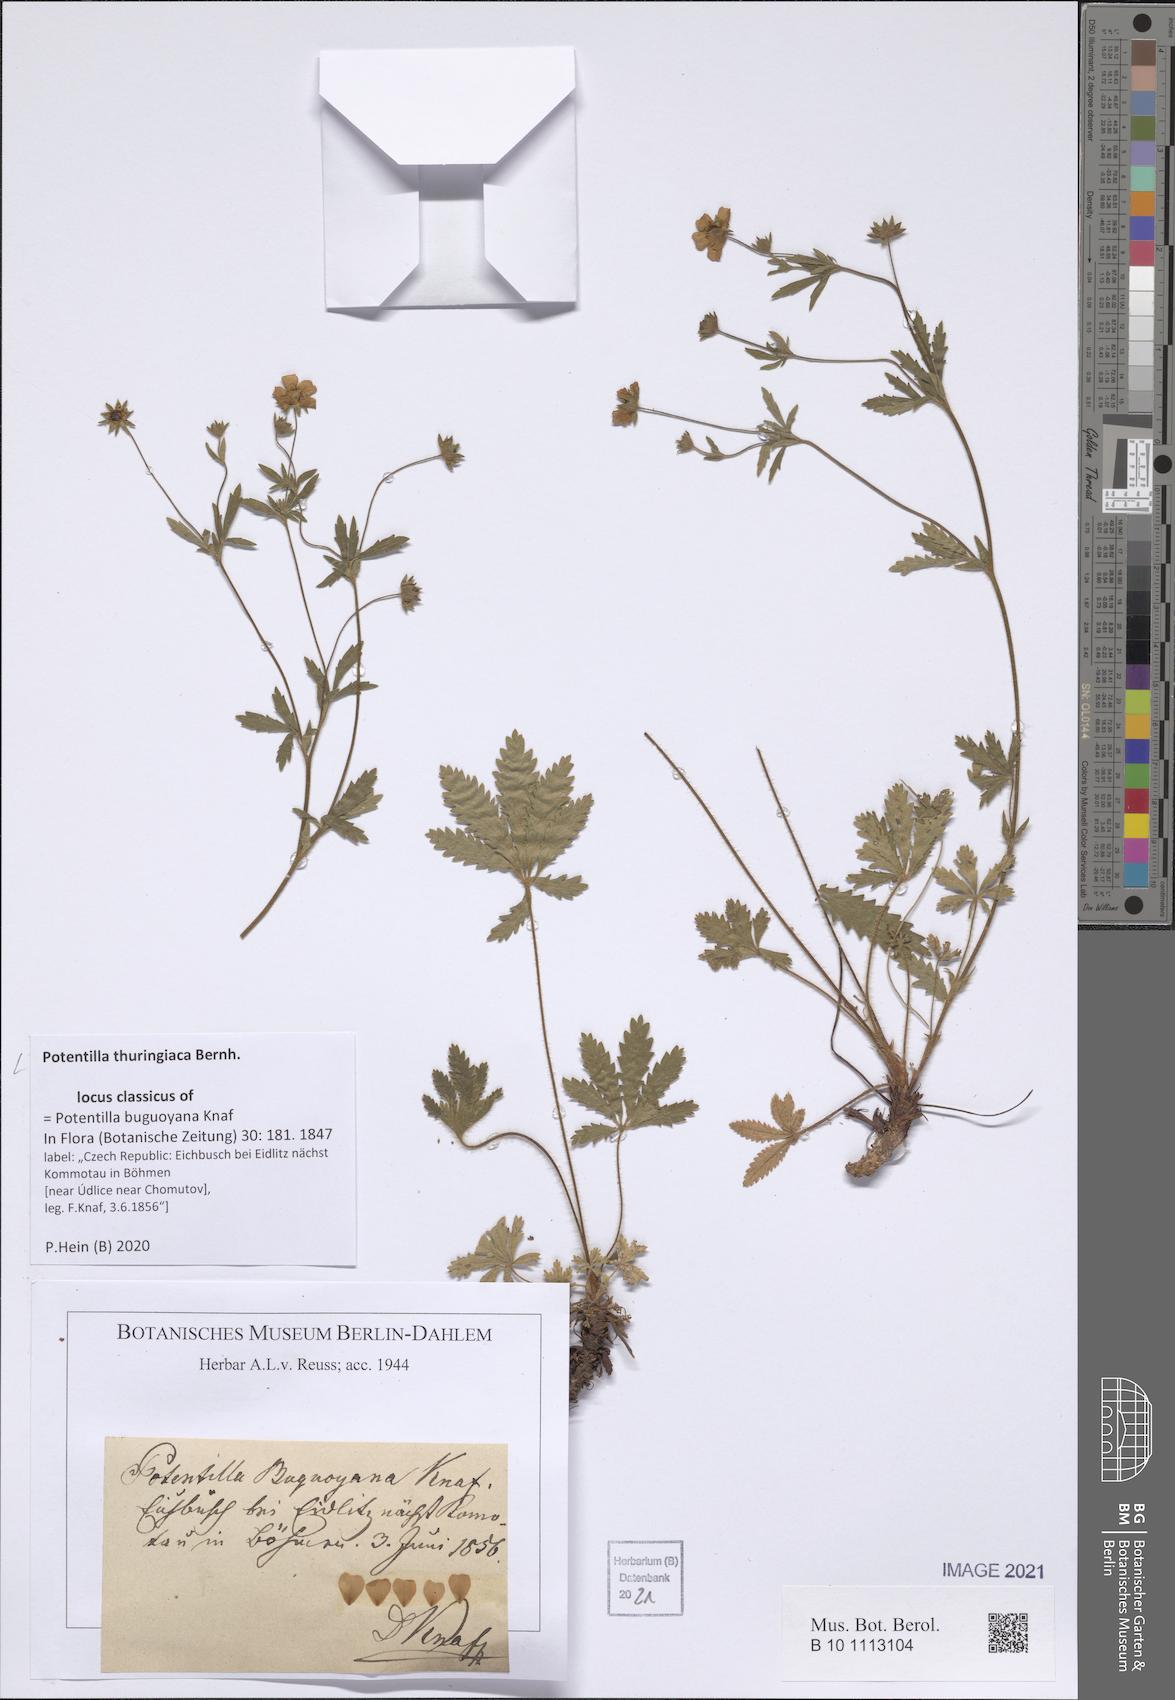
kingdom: Plantae
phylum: Tracheophyta
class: Magnoliopsida
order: Rosales
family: Rosaceae
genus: Potentilla
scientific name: Potentilla thuringiaca
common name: European cinquefoil
